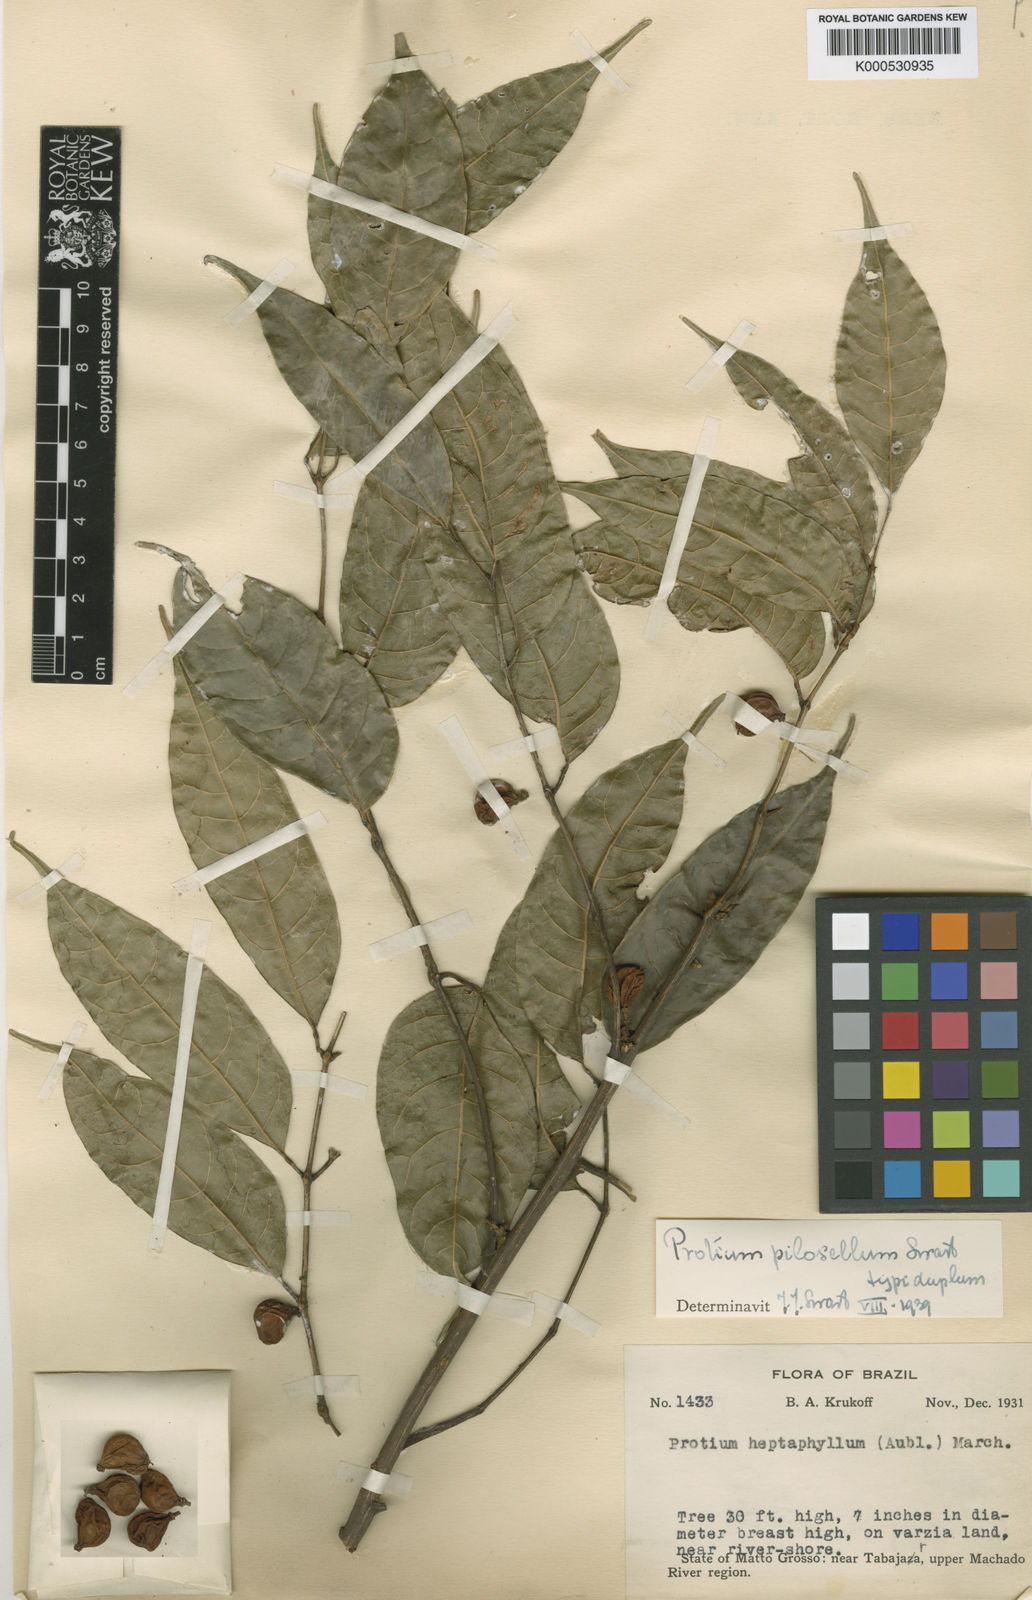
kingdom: Plantae
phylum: Tracheophyta
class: Magnoliopsida
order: Sapindales
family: Burseraceae
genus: Protium
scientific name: Protium pilosellum
